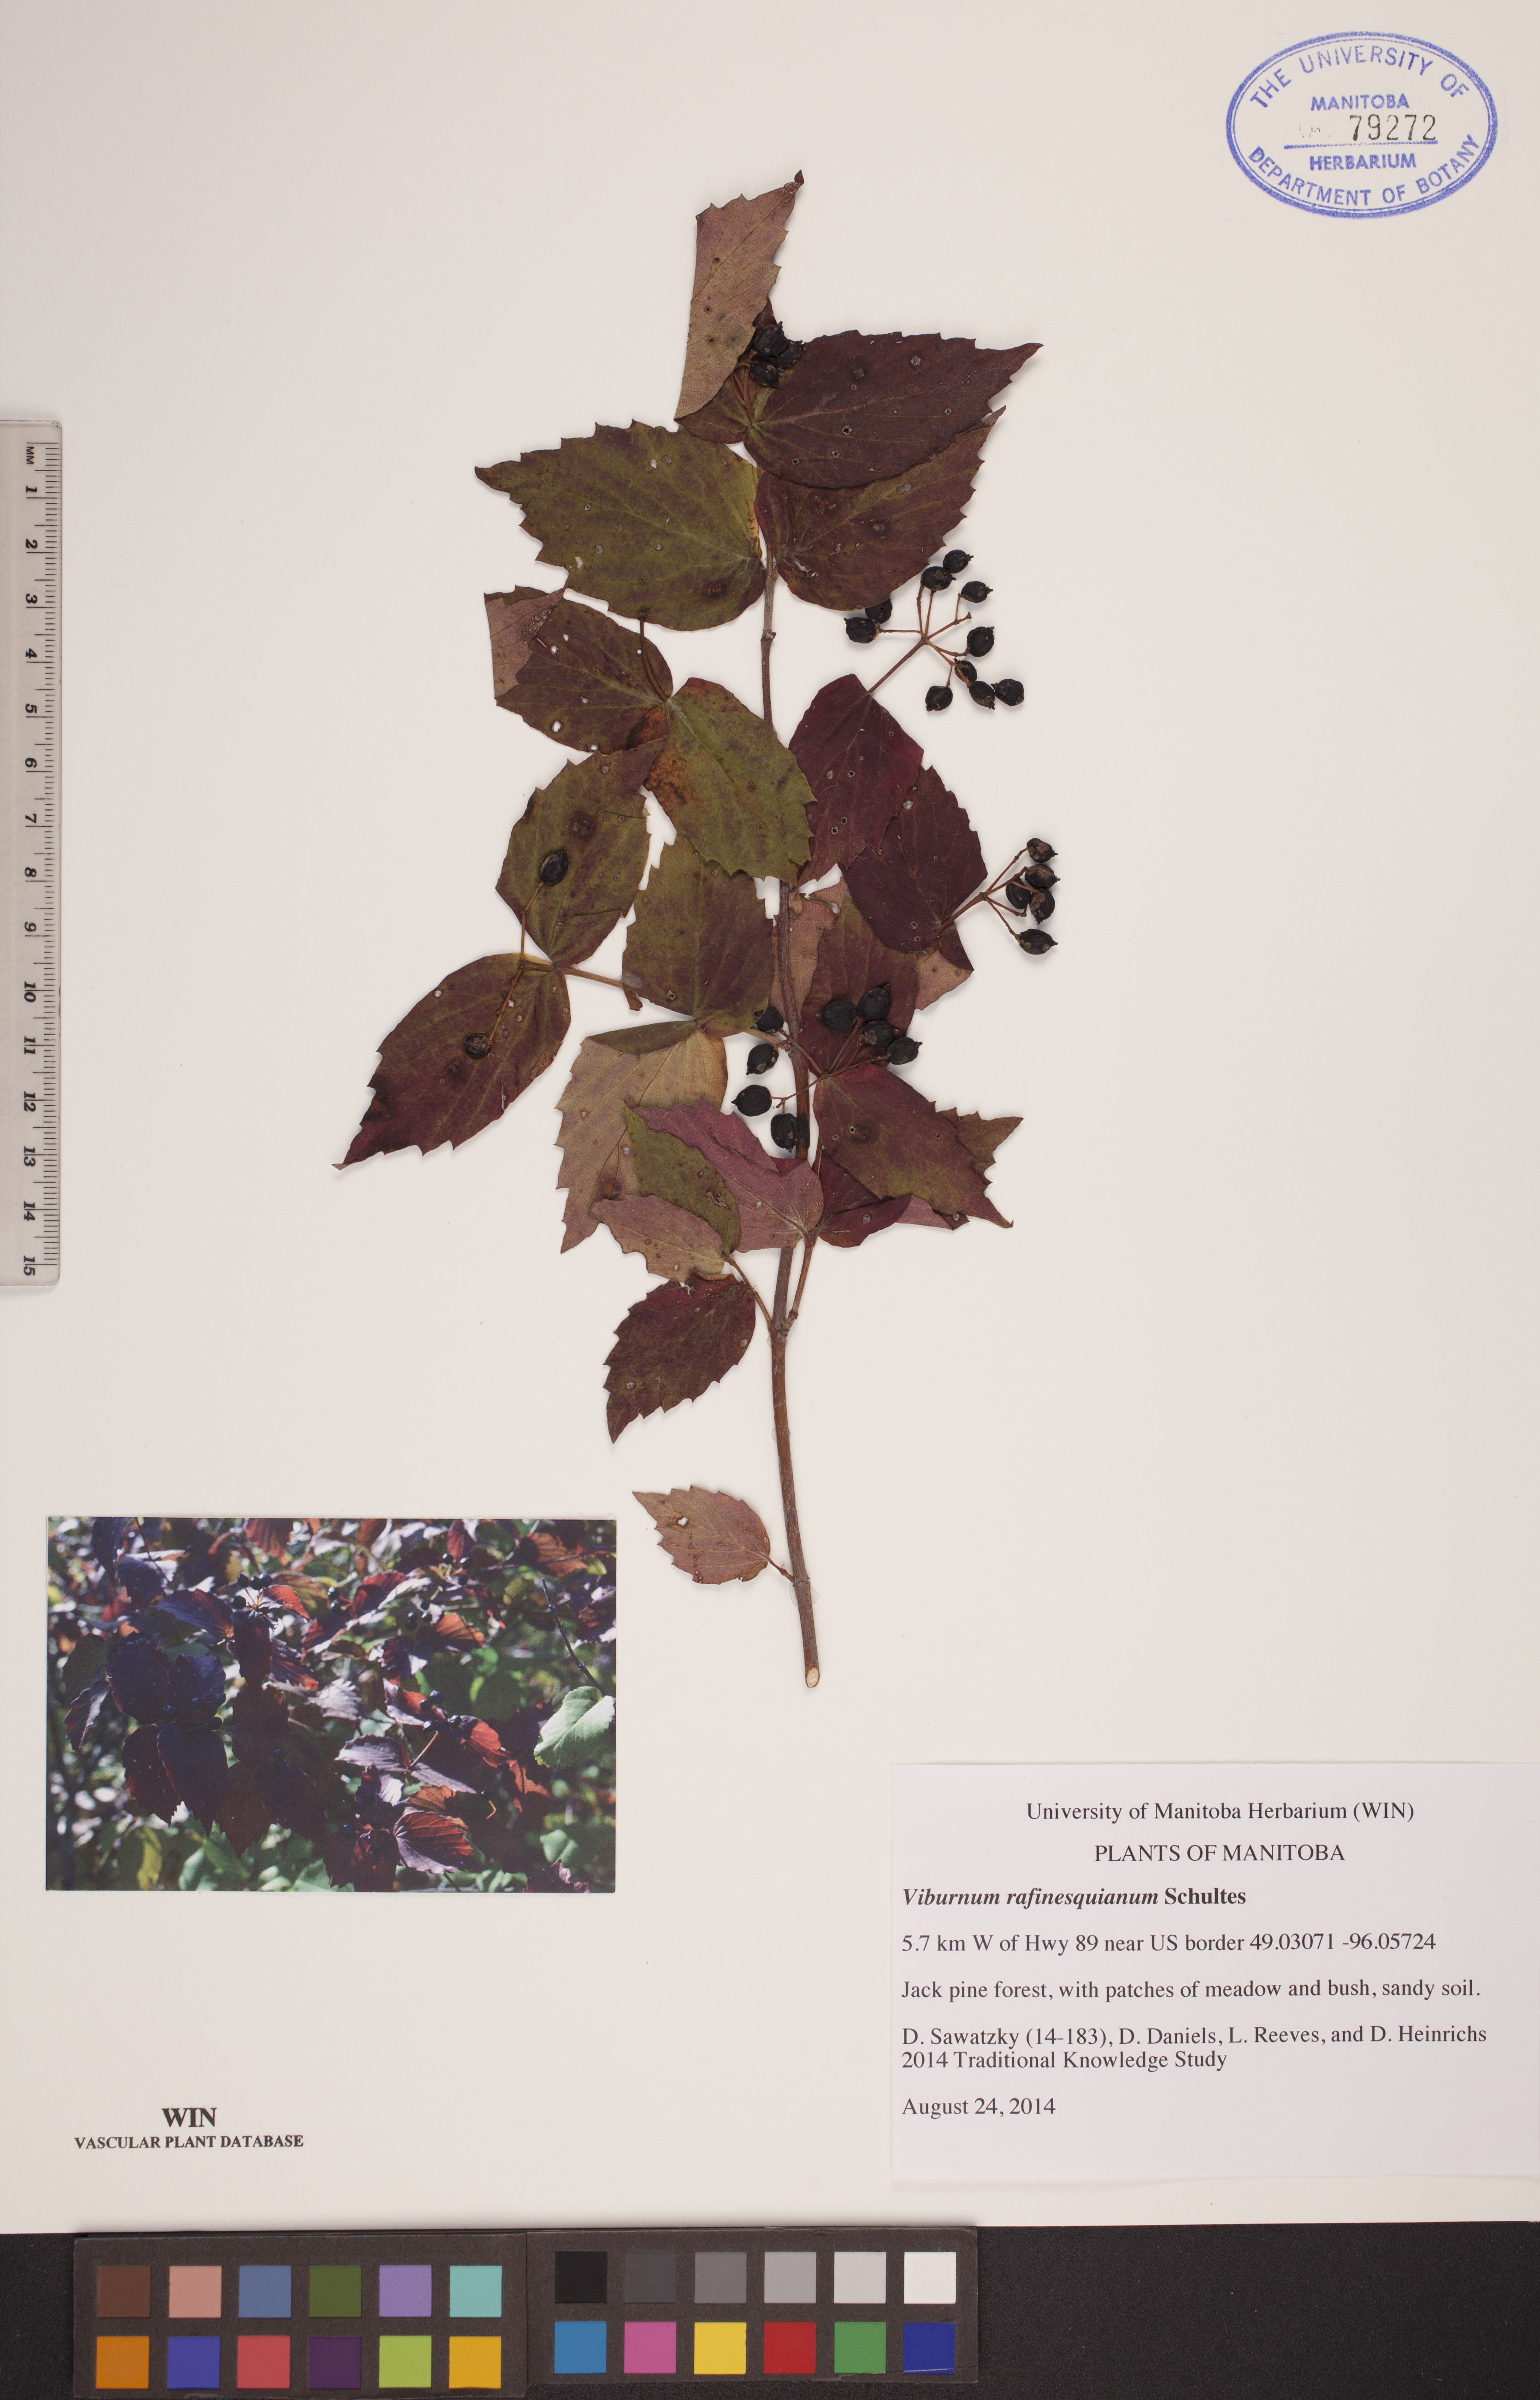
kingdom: Plantae
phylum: Tracheophyta
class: Magnoliopsida
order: Dipsacales
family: Viburnaceae
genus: Viburnum
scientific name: Viburnum rafinesquianum
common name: Downy arrow-wood
